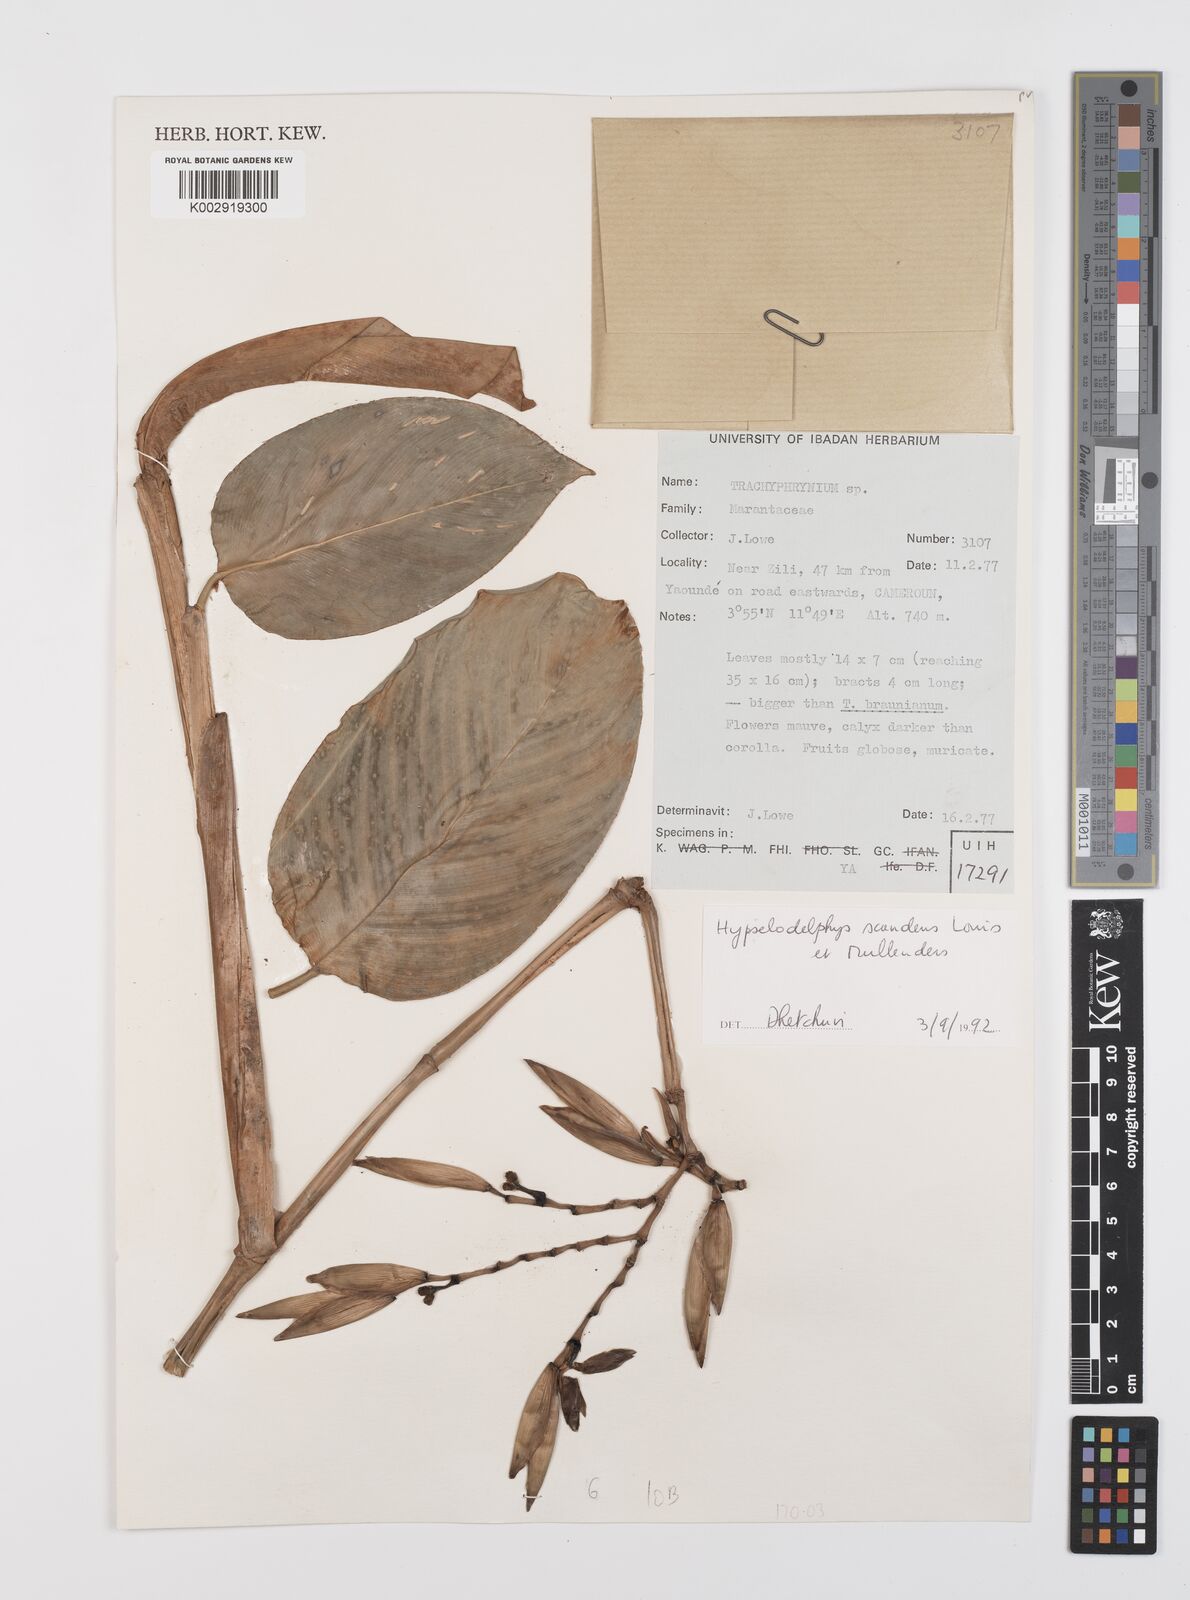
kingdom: Plantae
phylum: Tracheophyta
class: Liliopsida
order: Zingiberales
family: Marantaceae
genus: Hypselodelphys
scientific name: Hypselodelphys scandens
